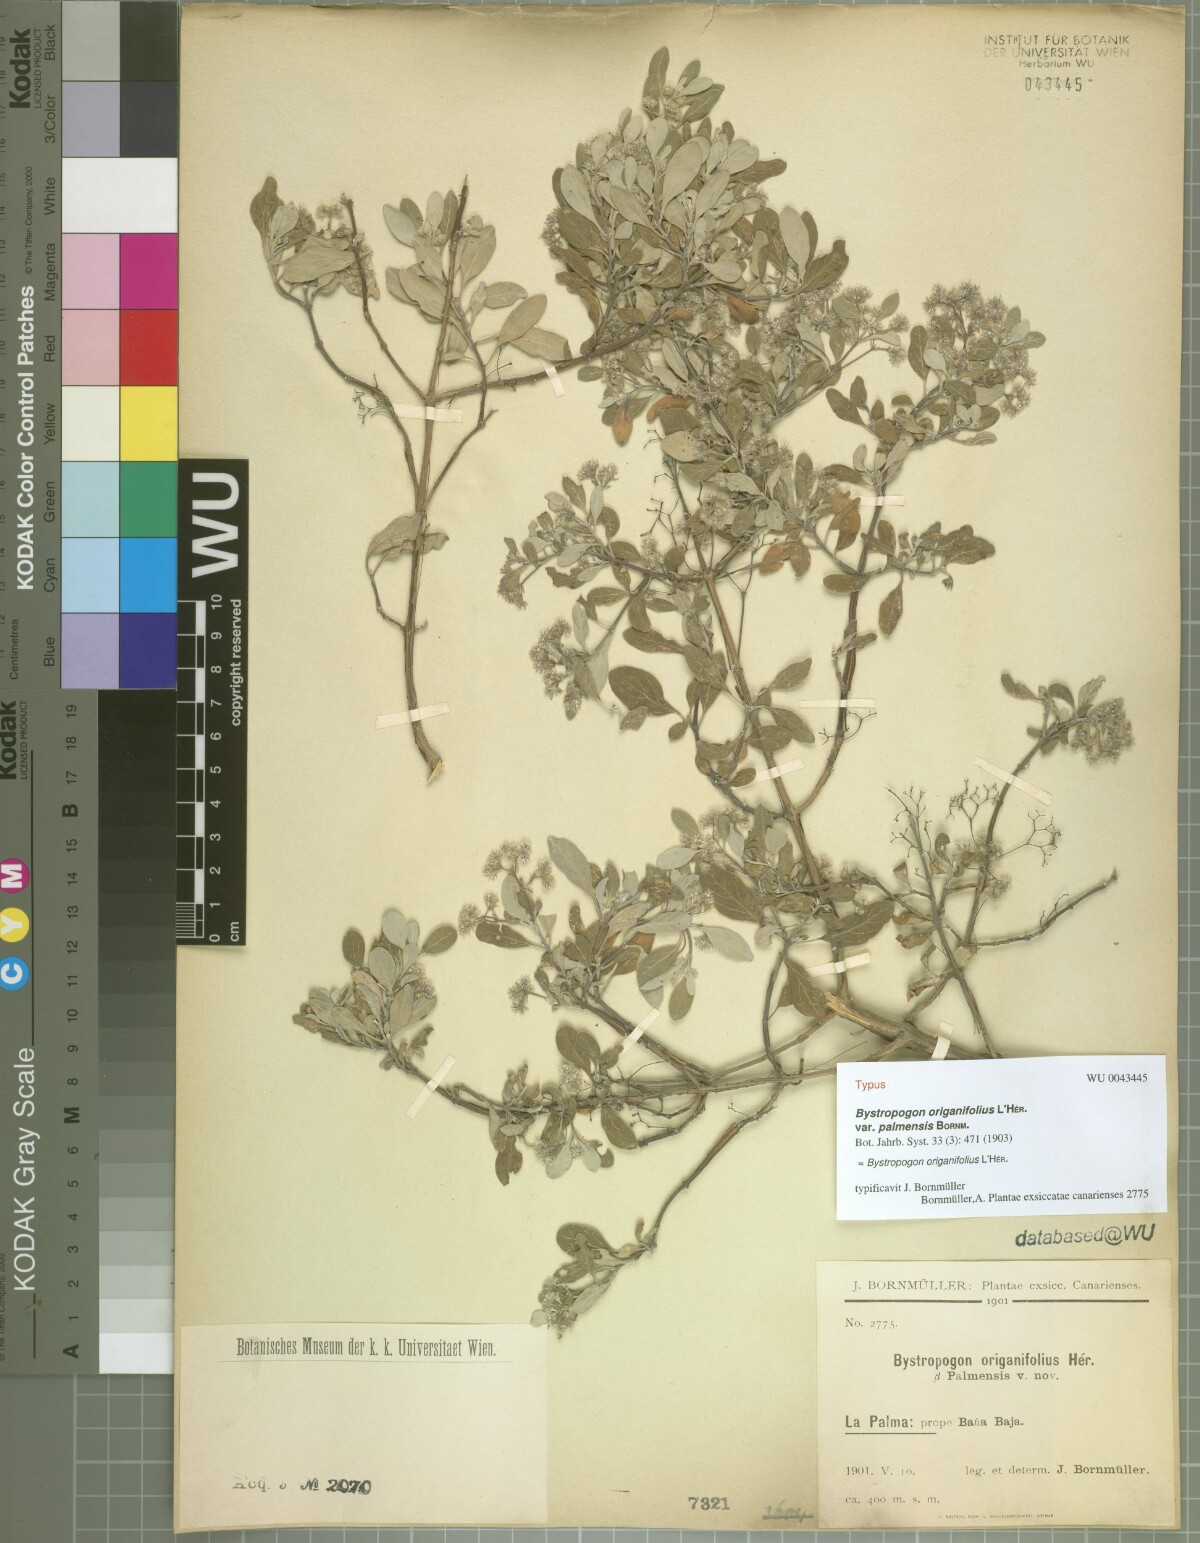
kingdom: Plantae
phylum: Tracheophyta
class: Magnoliopsida
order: Lamiales
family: Lamiaceae
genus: Bystropogon
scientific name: Bystropogon origanifolius
